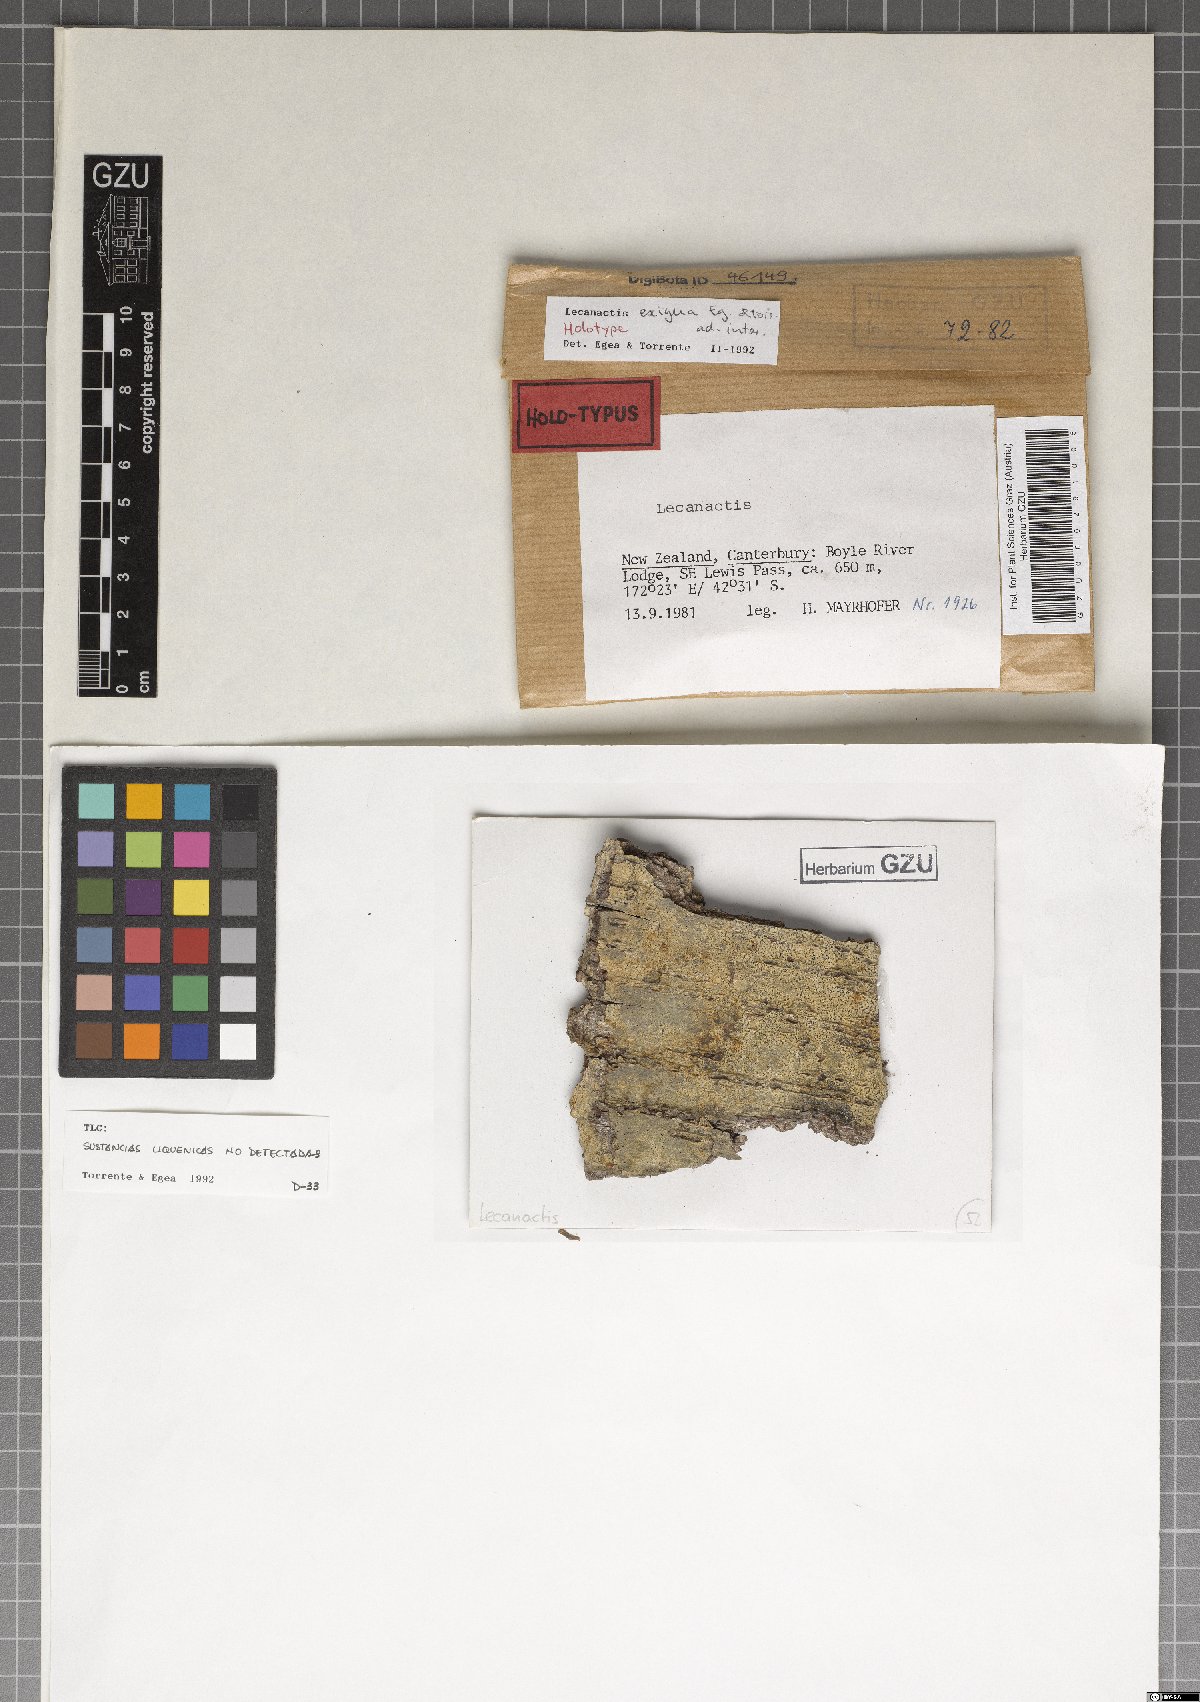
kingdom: Fungi
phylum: Ascomycota
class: Arthoniomycetes
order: Arthoniales
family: Roccellaceae
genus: Lecanactis
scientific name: Lecanactis exigua
